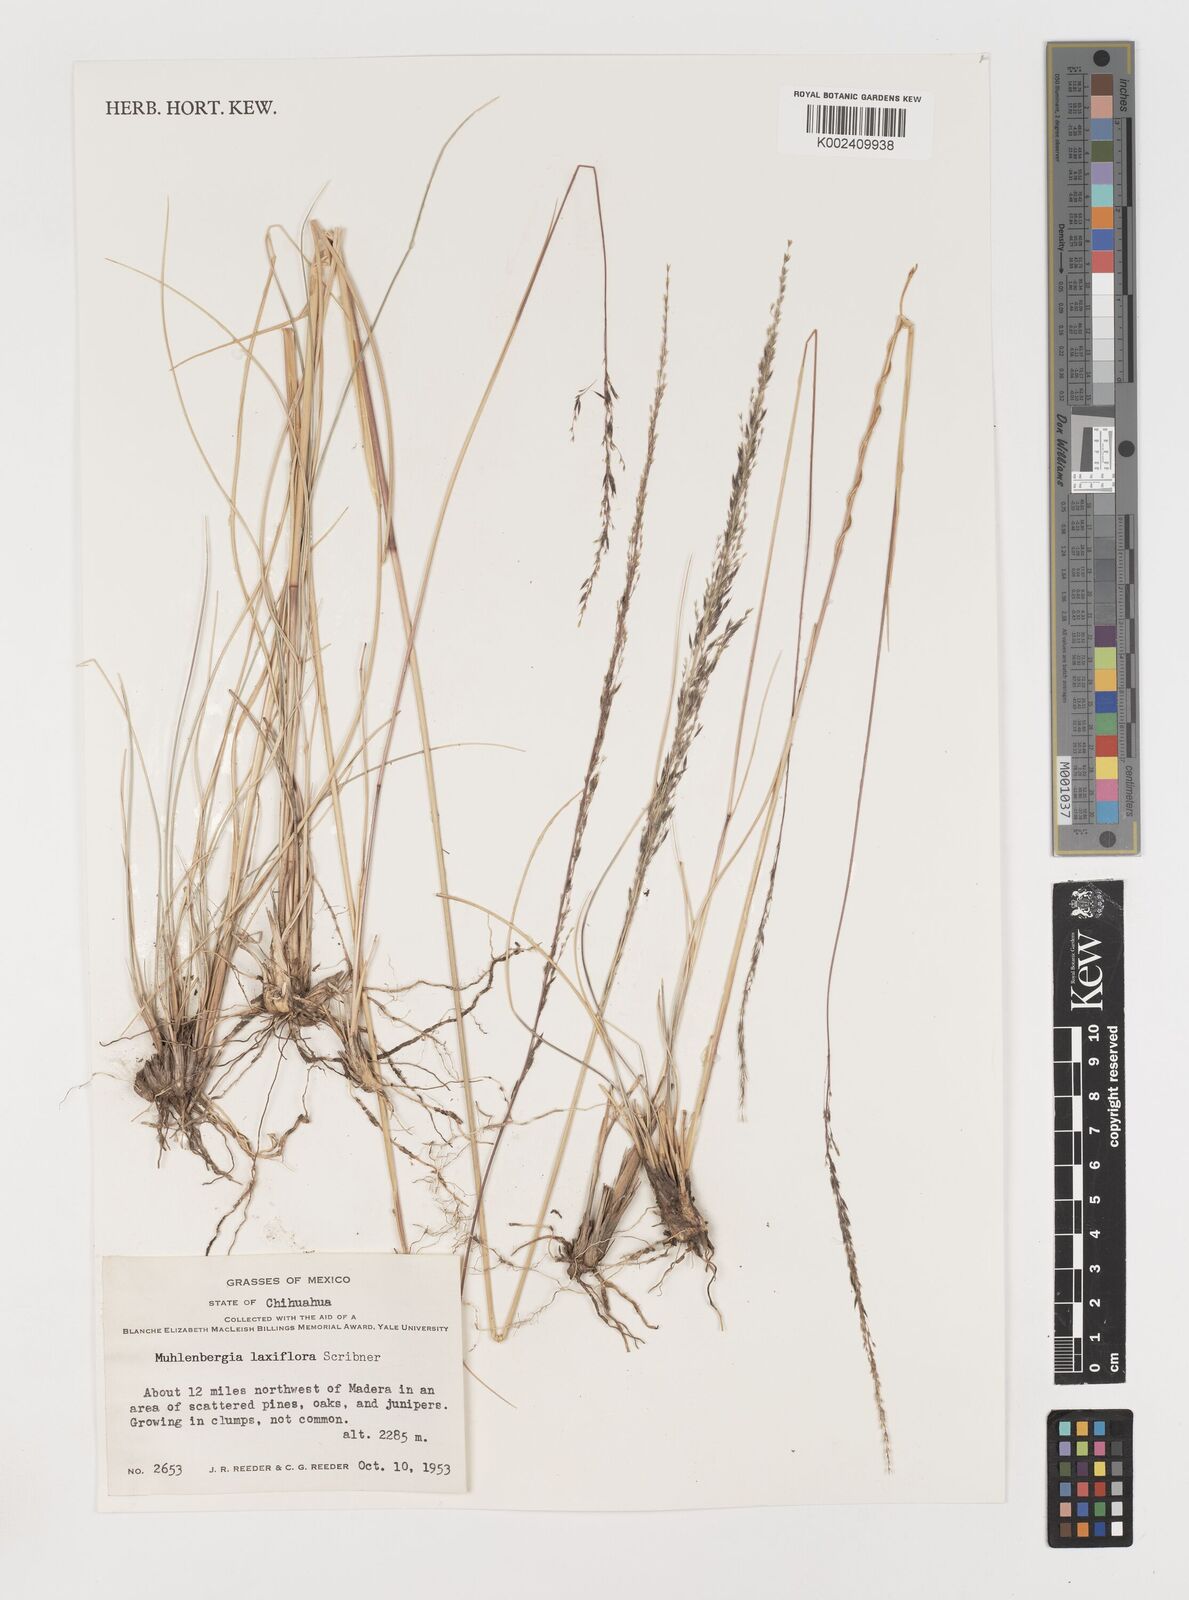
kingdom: Plantae
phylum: Tracheophyta
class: Liliopsida
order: Poales
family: Poaceae
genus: Muhlenbergia
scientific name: Muhlenbergia mucronata
